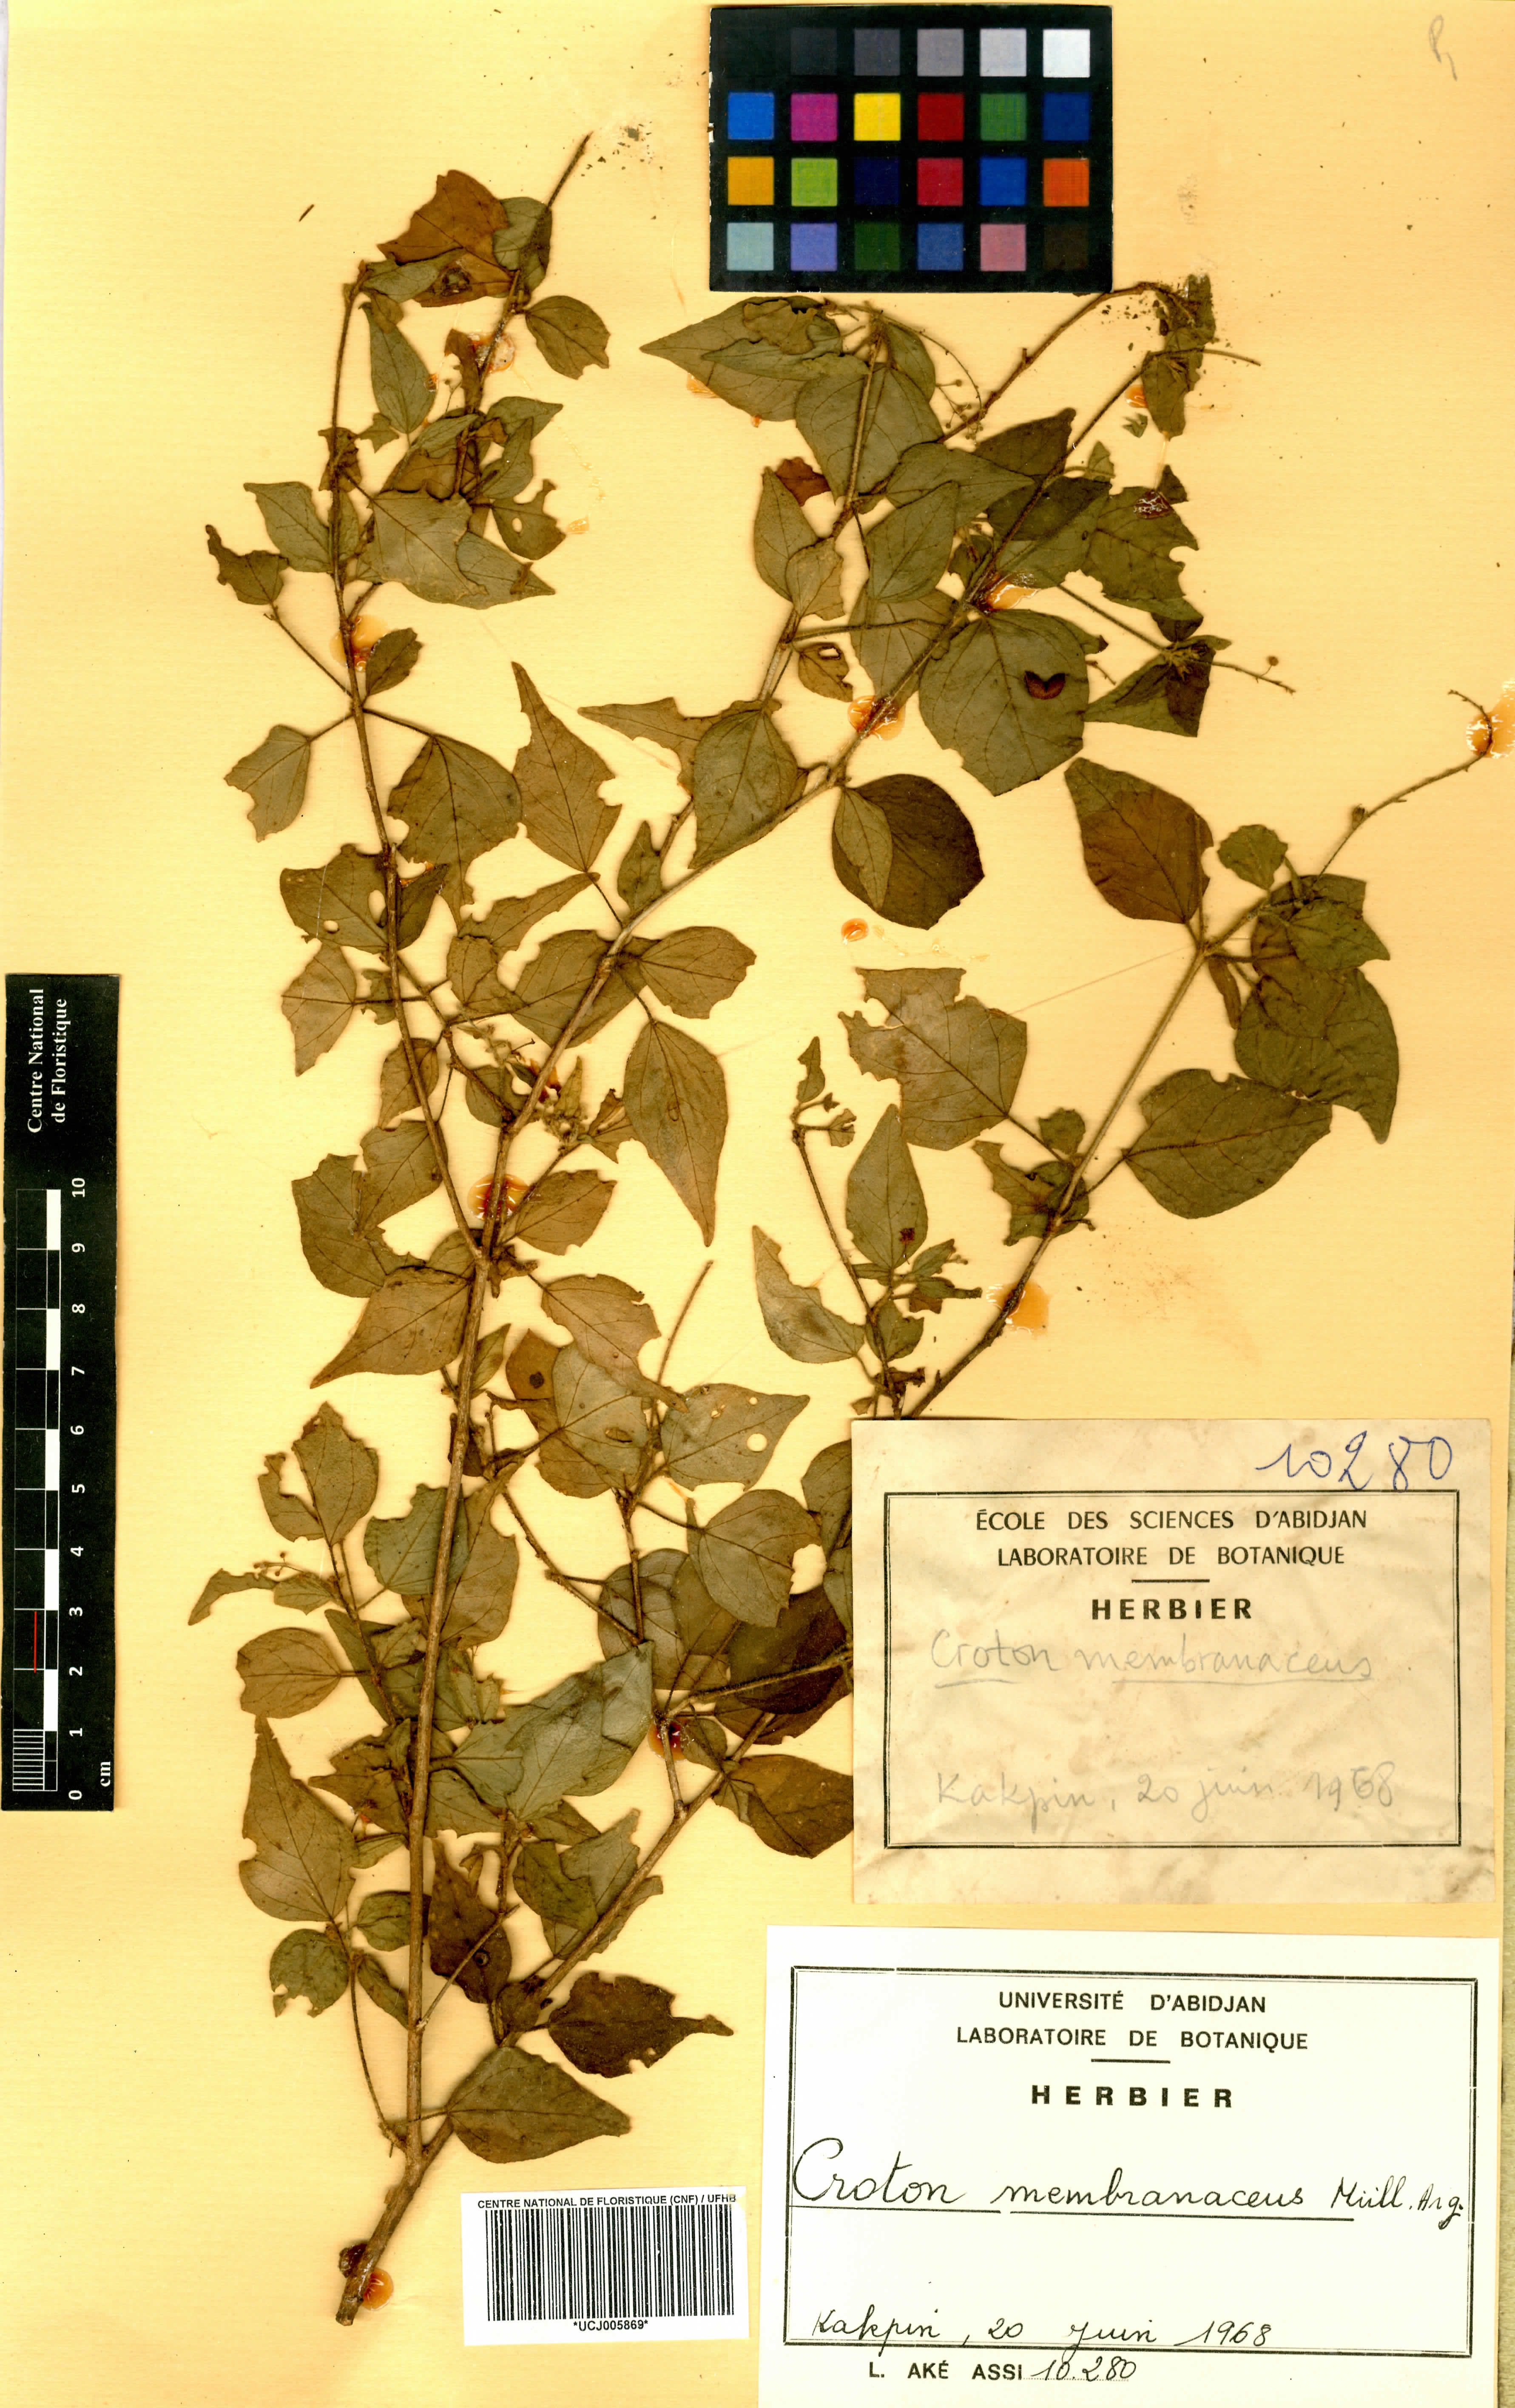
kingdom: Plantae
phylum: Tracheophyta
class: Magnoliopsida
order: Malpighiales
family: Euphorbiaceae
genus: Croton
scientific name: Croton membranaceus
